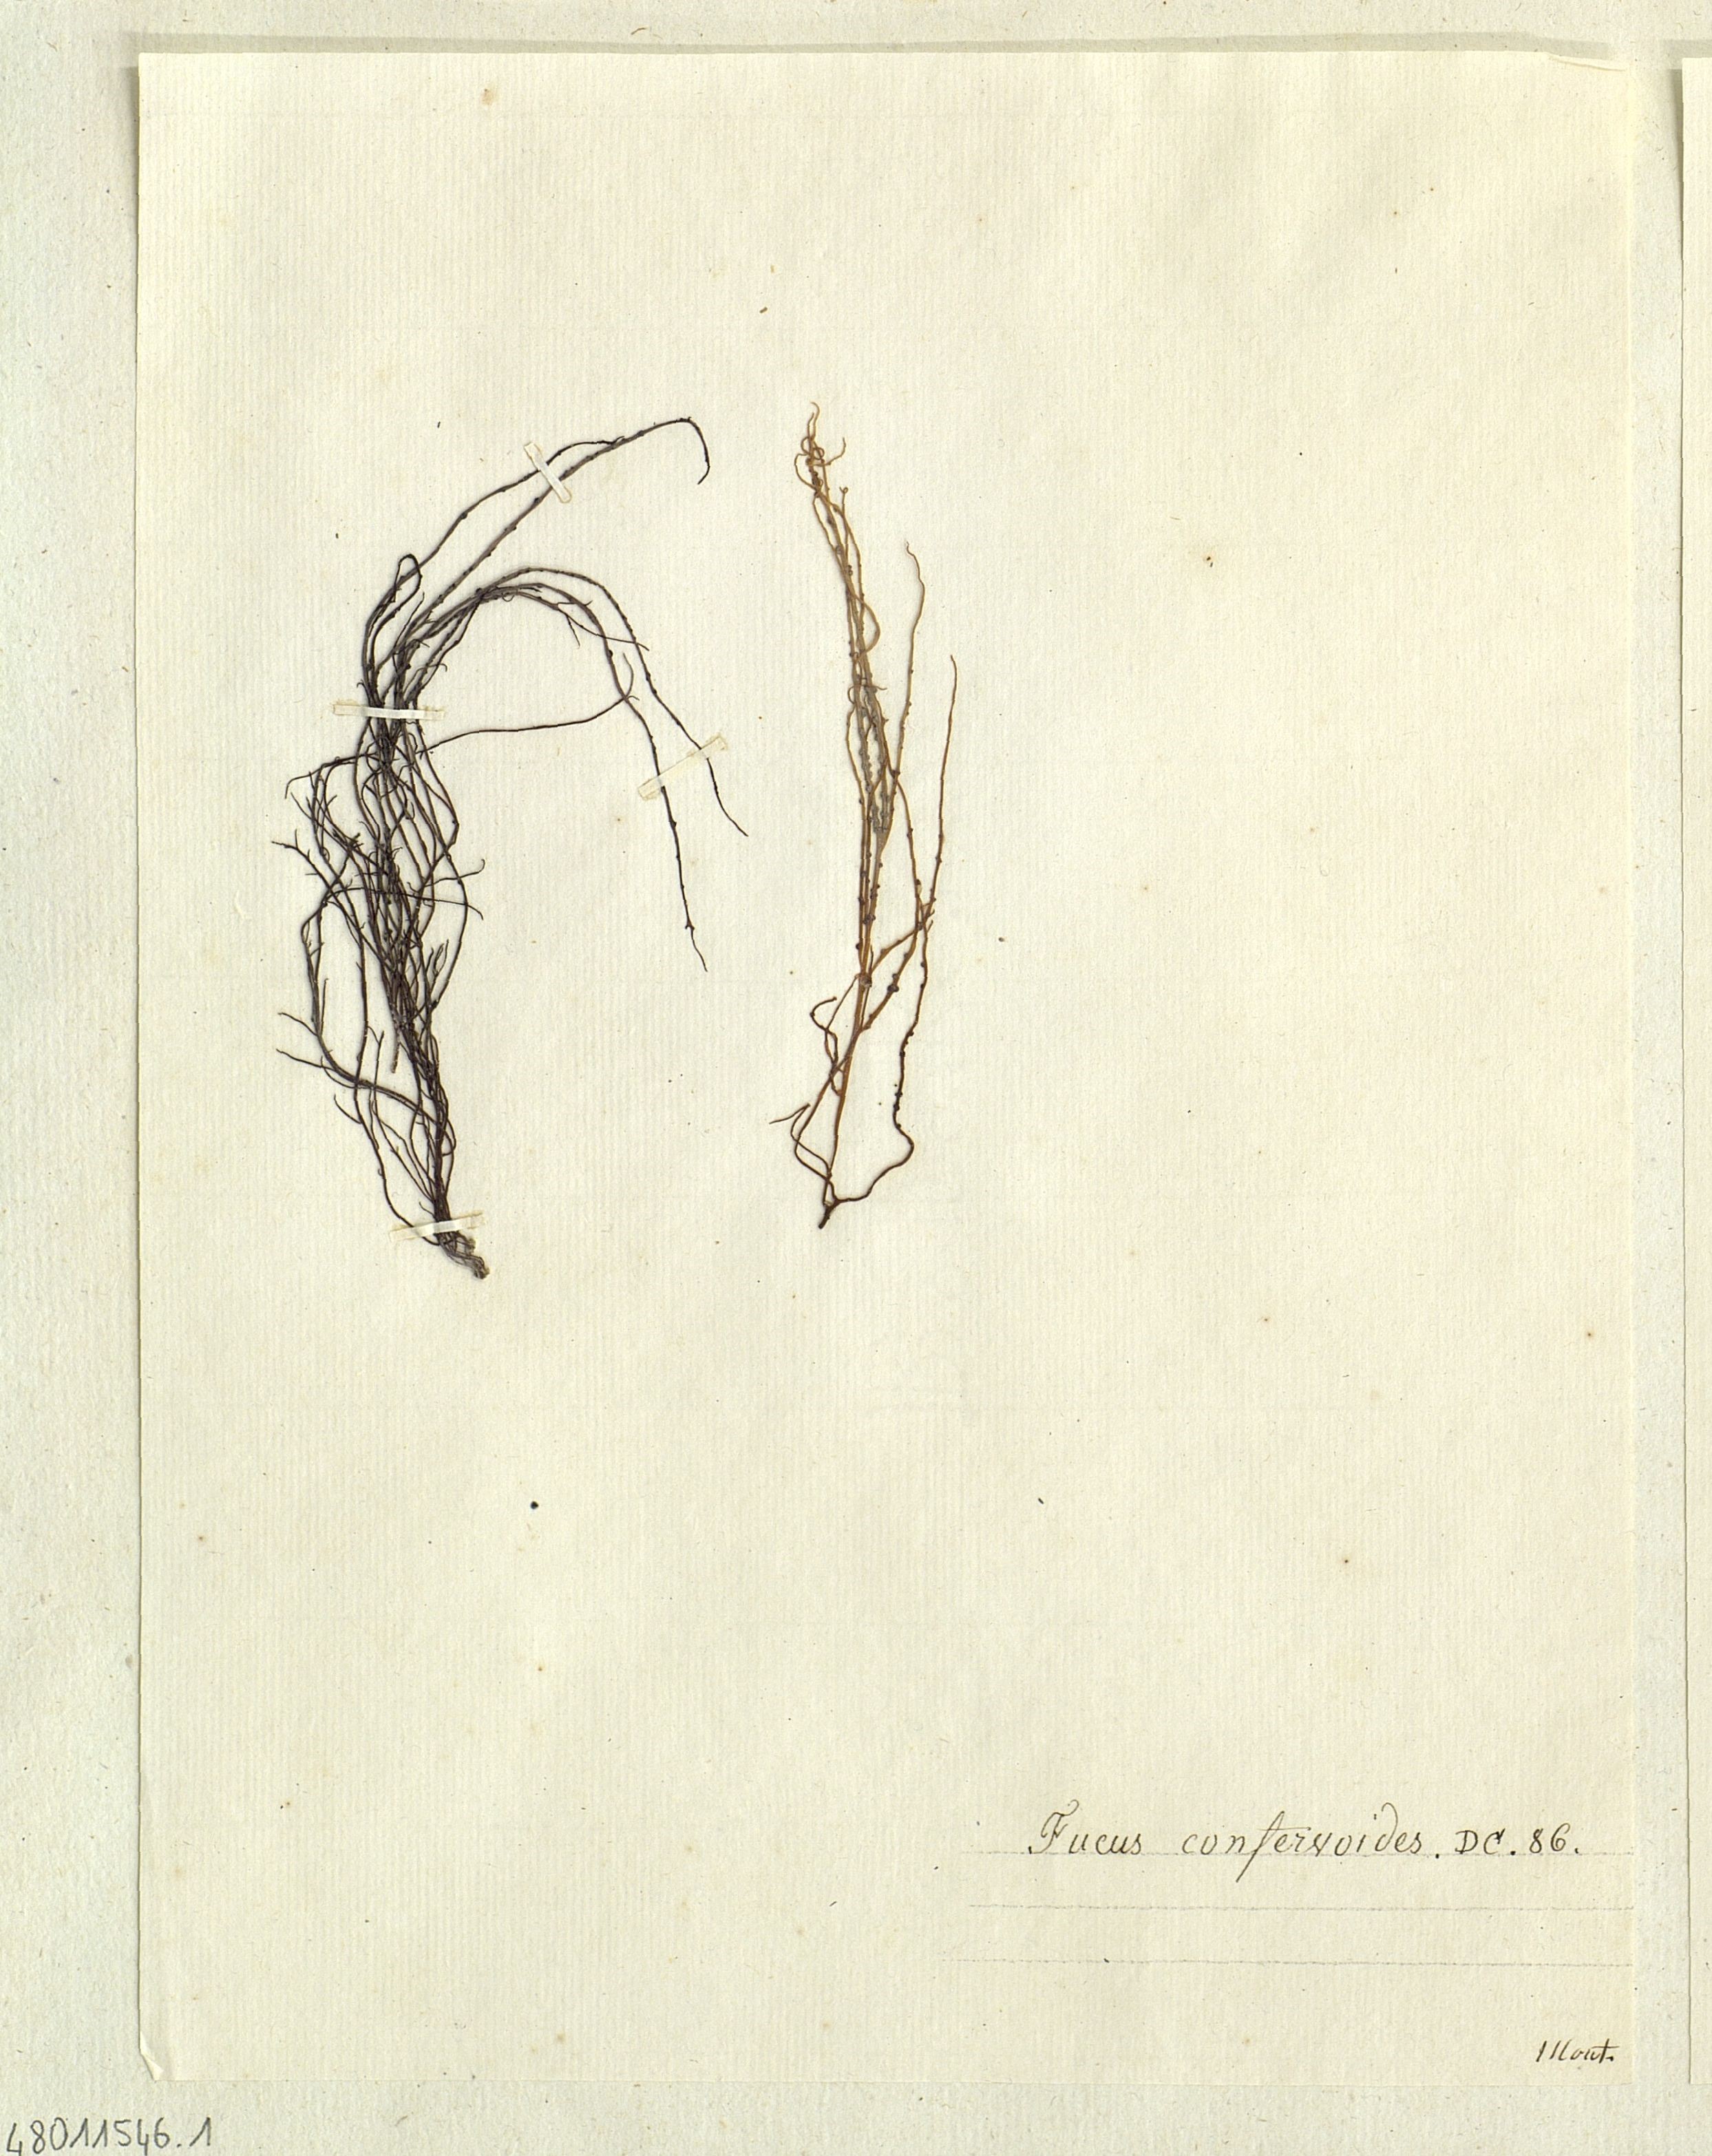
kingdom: Chromista
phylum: Ochrophyta
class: Phaeophyceae
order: Fucales
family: Fucaceae
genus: Fucus
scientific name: Fucus
